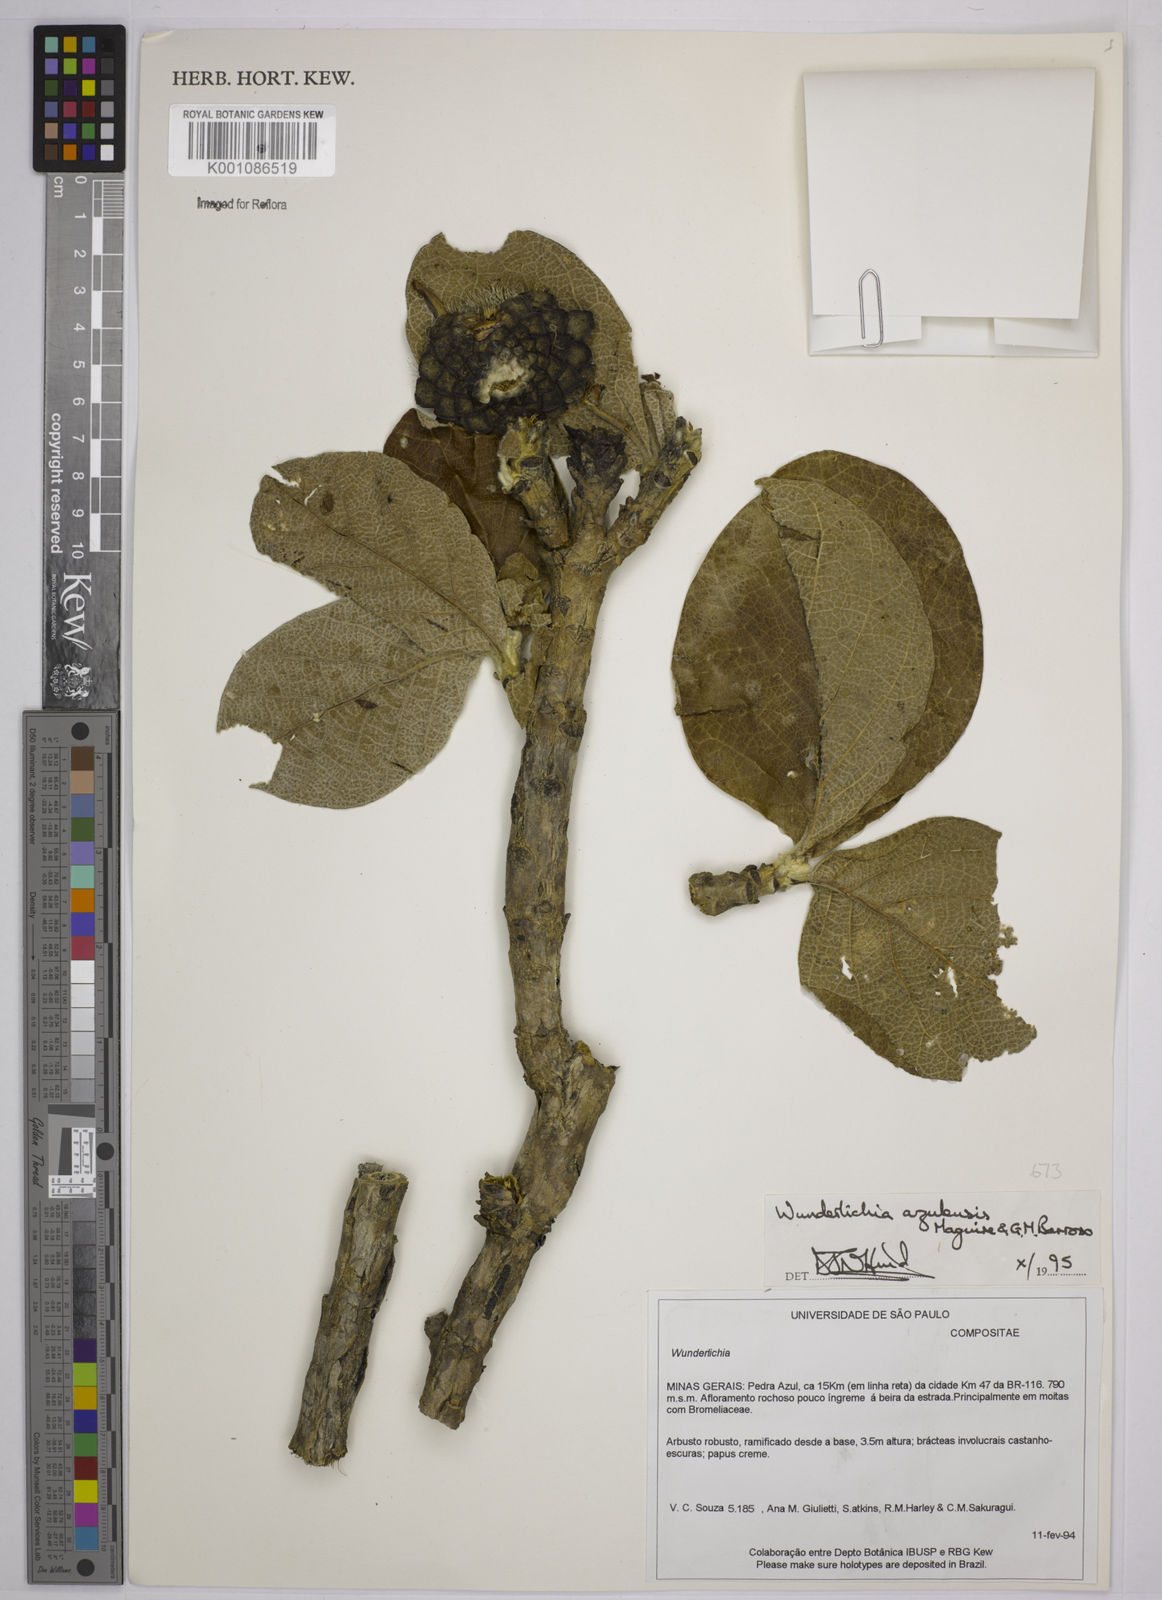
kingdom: Plantae
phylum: Tracheophyta
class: Magnoliopsida
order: Asterales
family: Asteraceae
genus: Wunderlichia
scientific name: Wunderlichia azulensis
